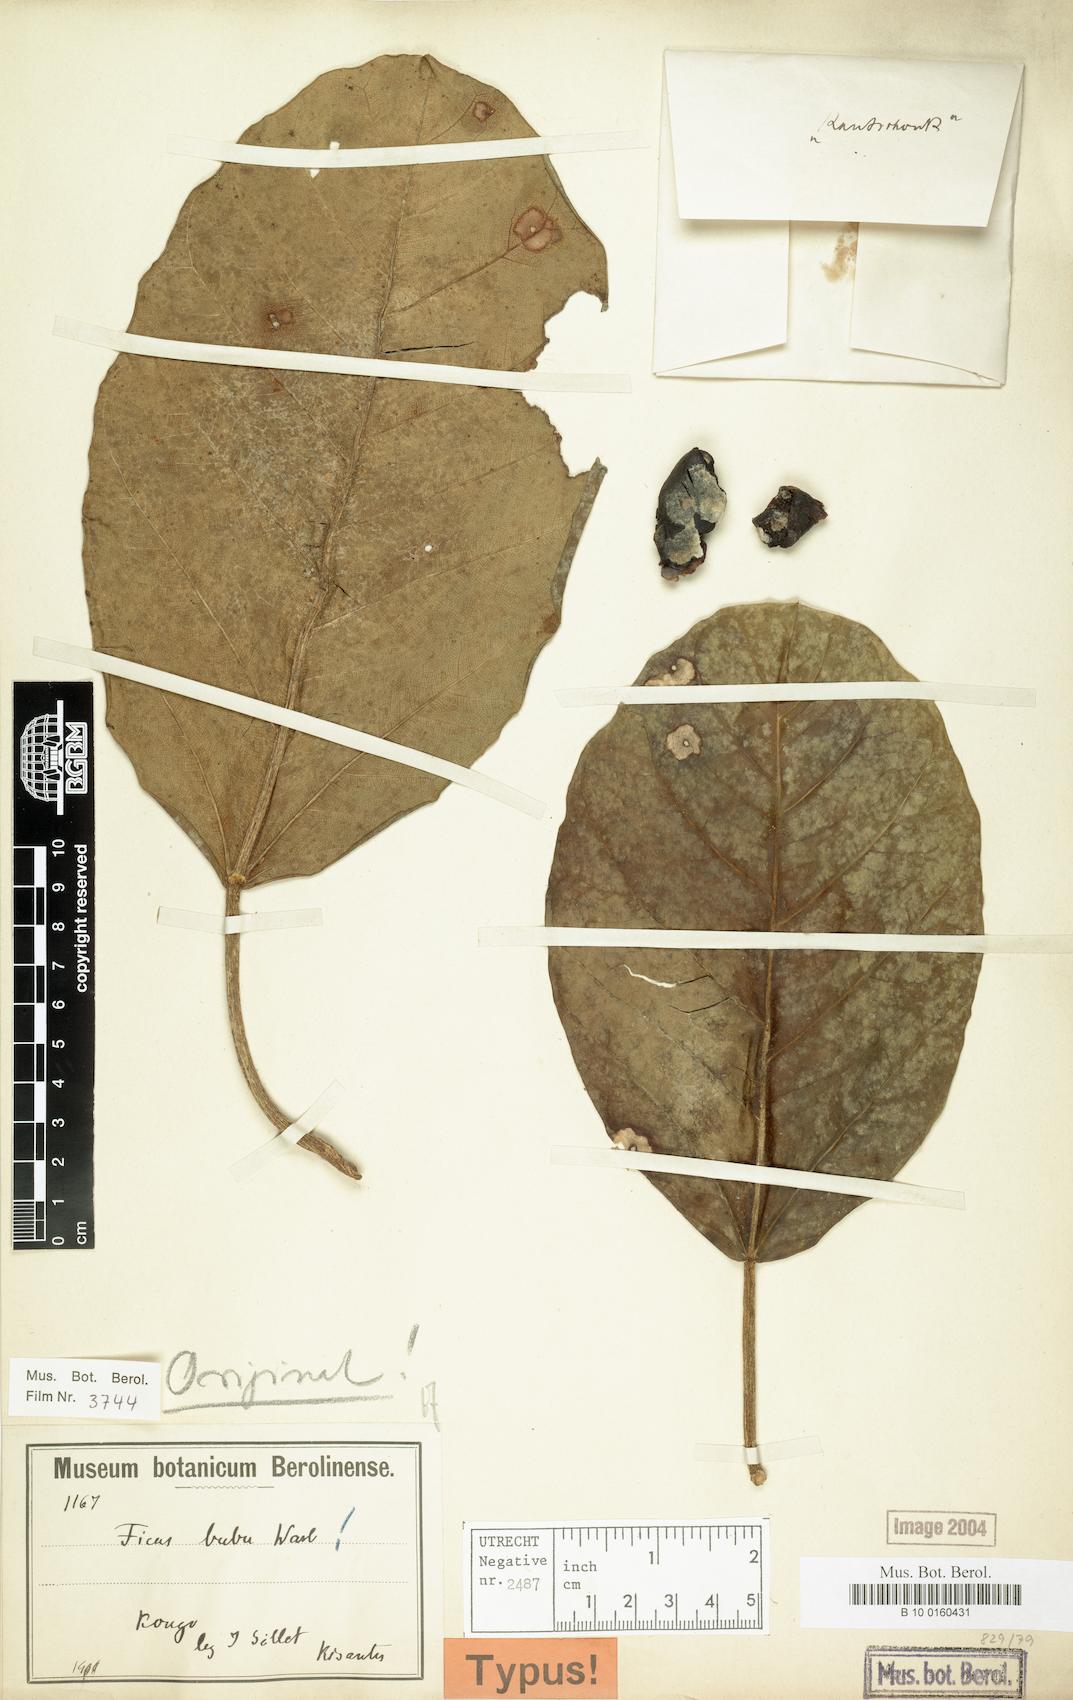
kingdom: Plantae
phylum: Tracheophyta
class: Magnoliopsida
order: Rosales
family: Moraceae
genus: Ficus
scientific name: Ficus bubu
